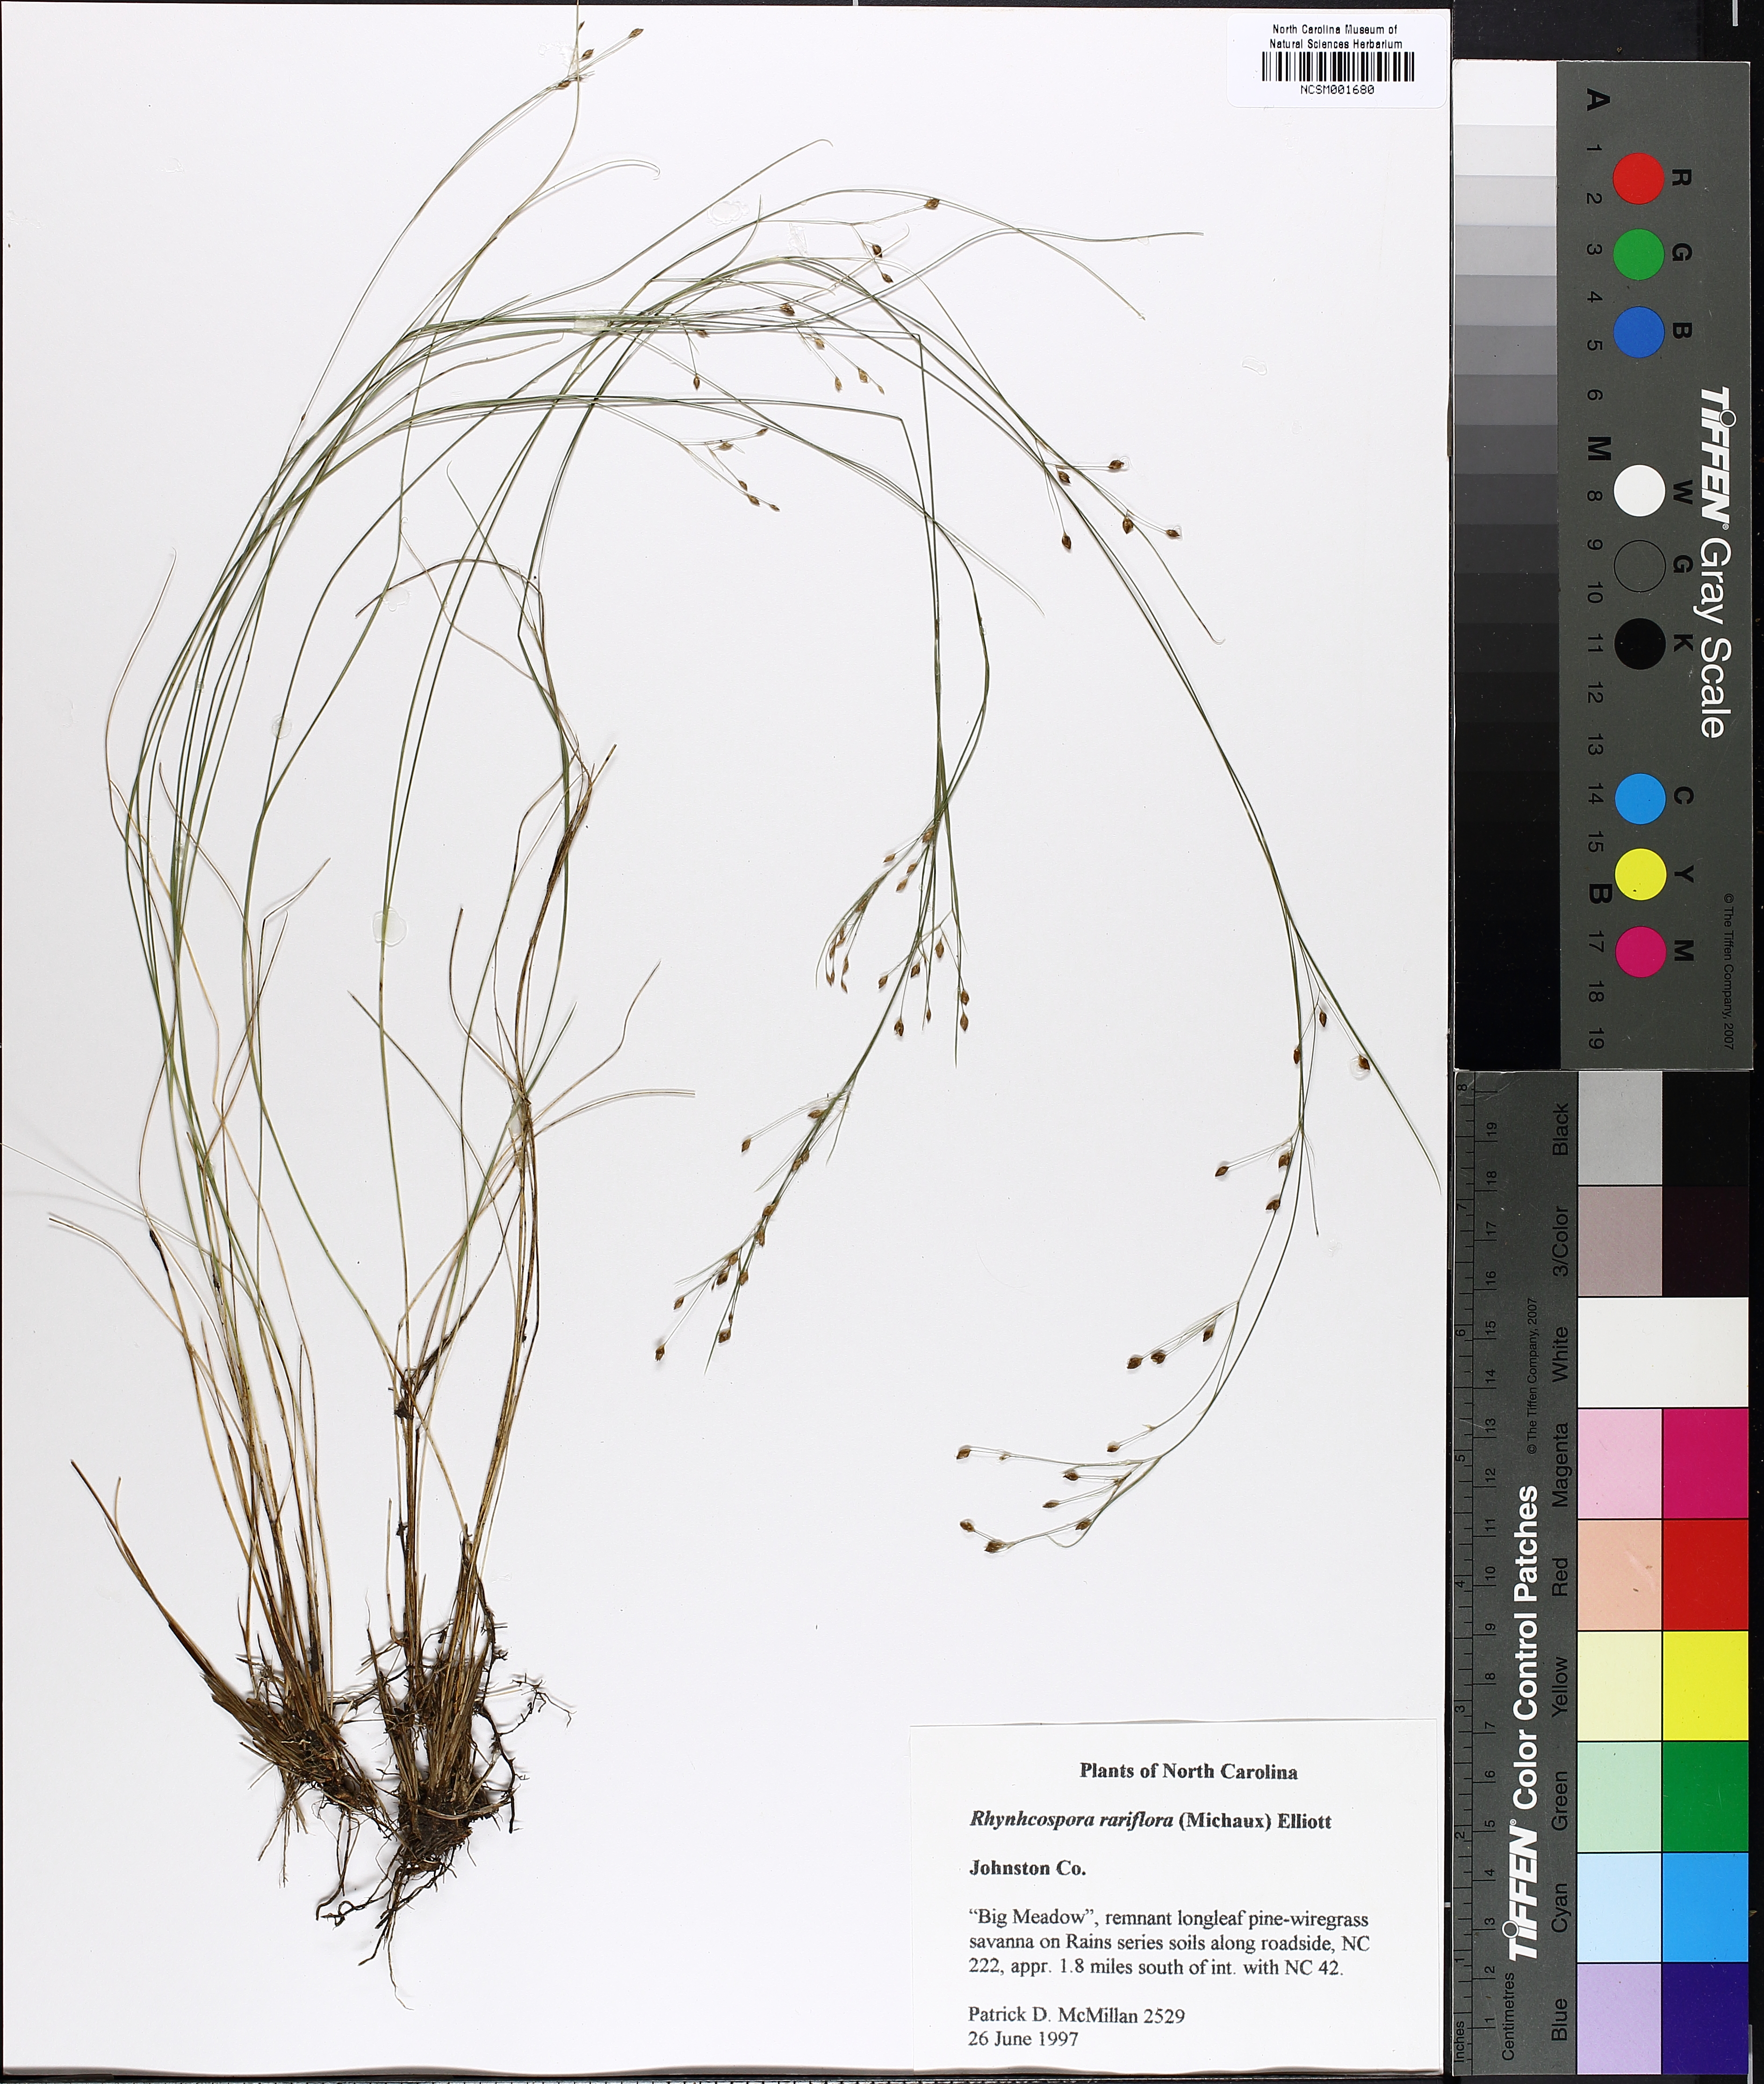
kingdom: Plantae
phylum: Tracheophyta
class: Liliopsida
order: Poales
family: Cyperaceae
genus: Rhynchospora
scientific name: Rhynchospora rariflora
